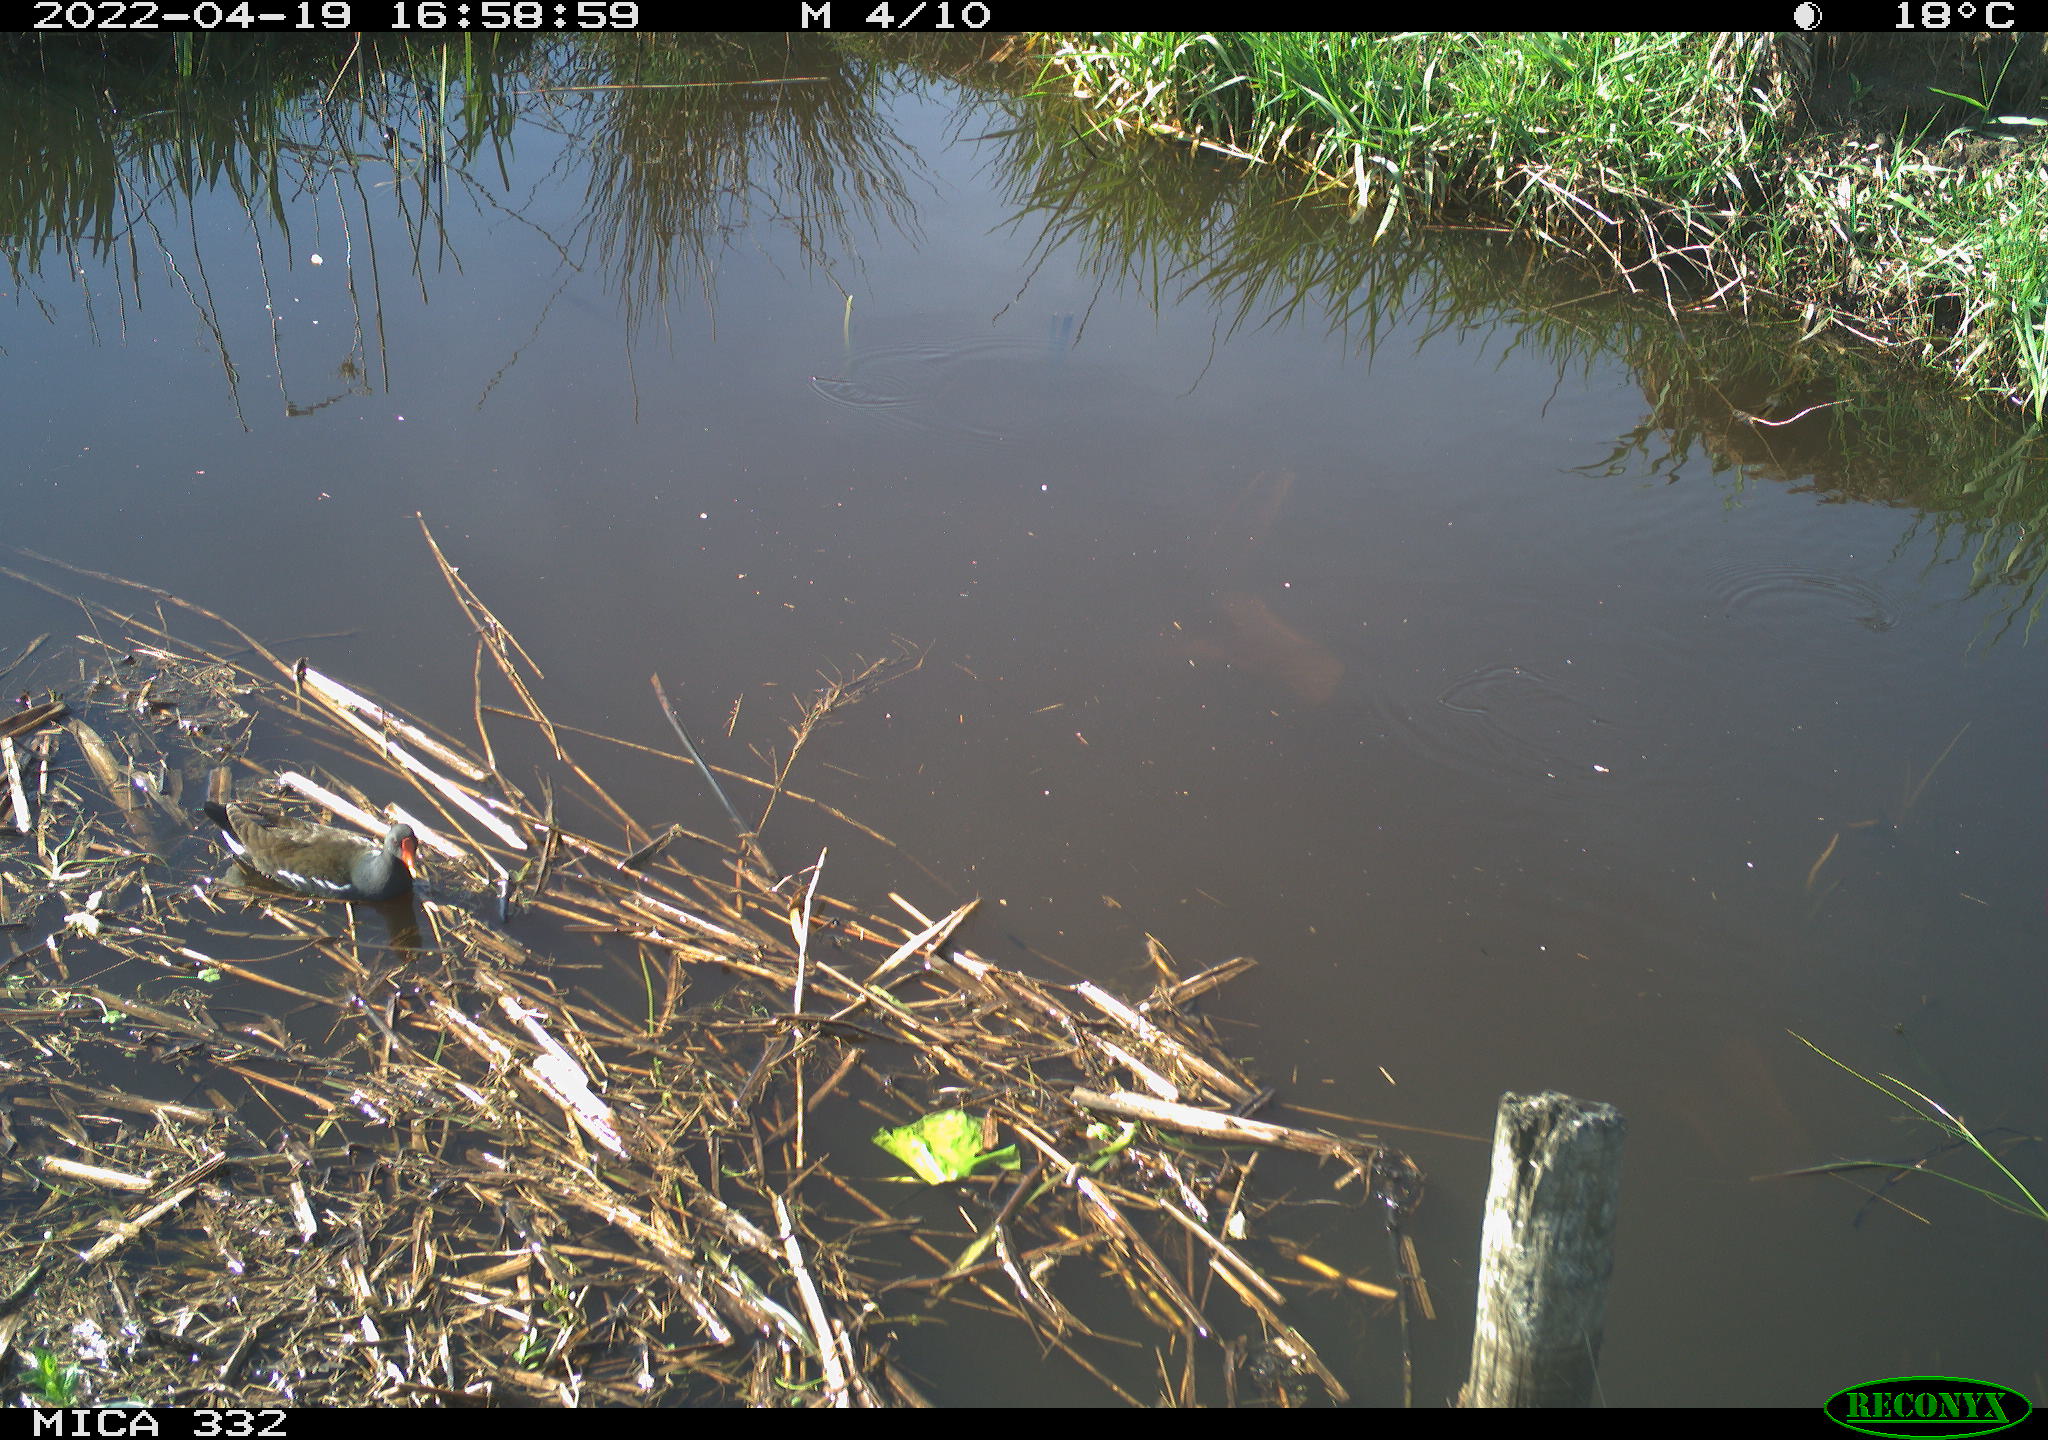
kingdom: Animalia
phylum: Chordata
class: Aves
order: Gruiformes
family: Rallidae
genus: Gallinula
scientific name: Gallinula chloropus
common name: Common moorhen
